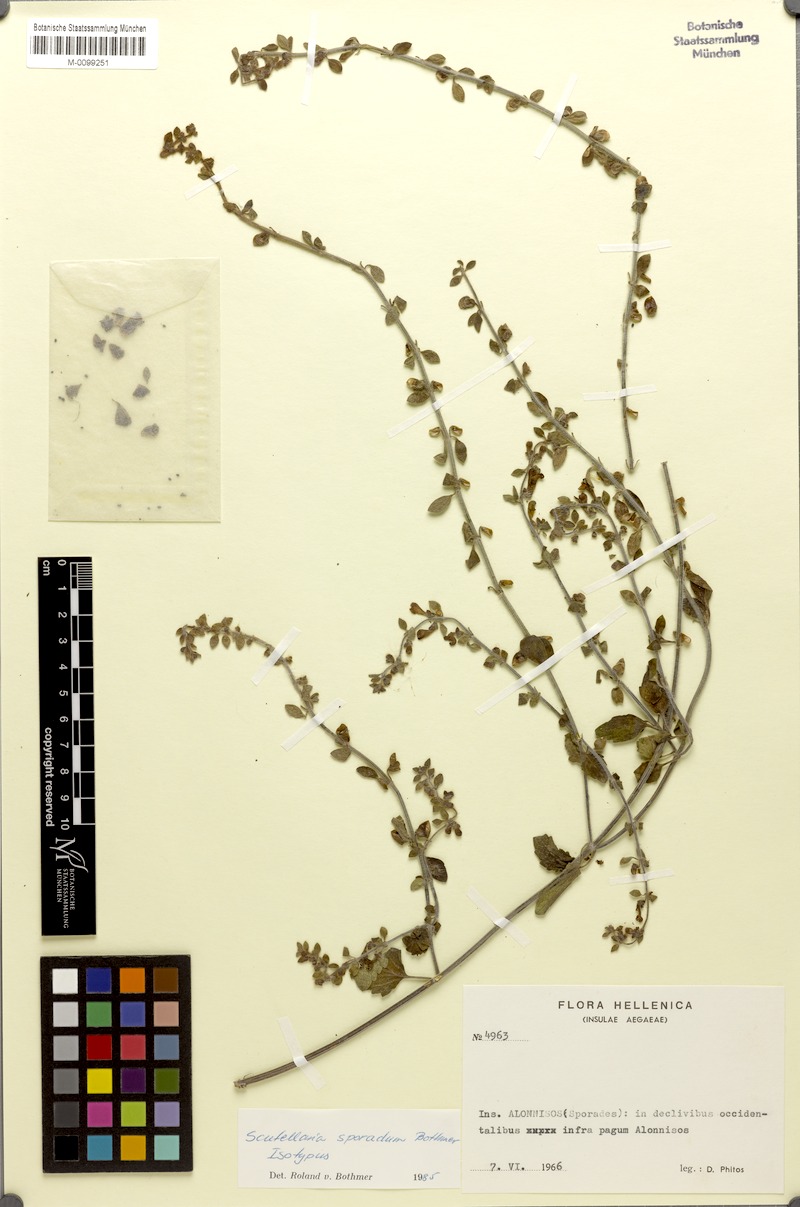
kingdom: Plantae
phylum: Tracheophyta
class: Magnoliopsida
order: Lamiales
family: Lamiaceae
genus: Scutellaria
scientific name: Scutellaria sporadum
